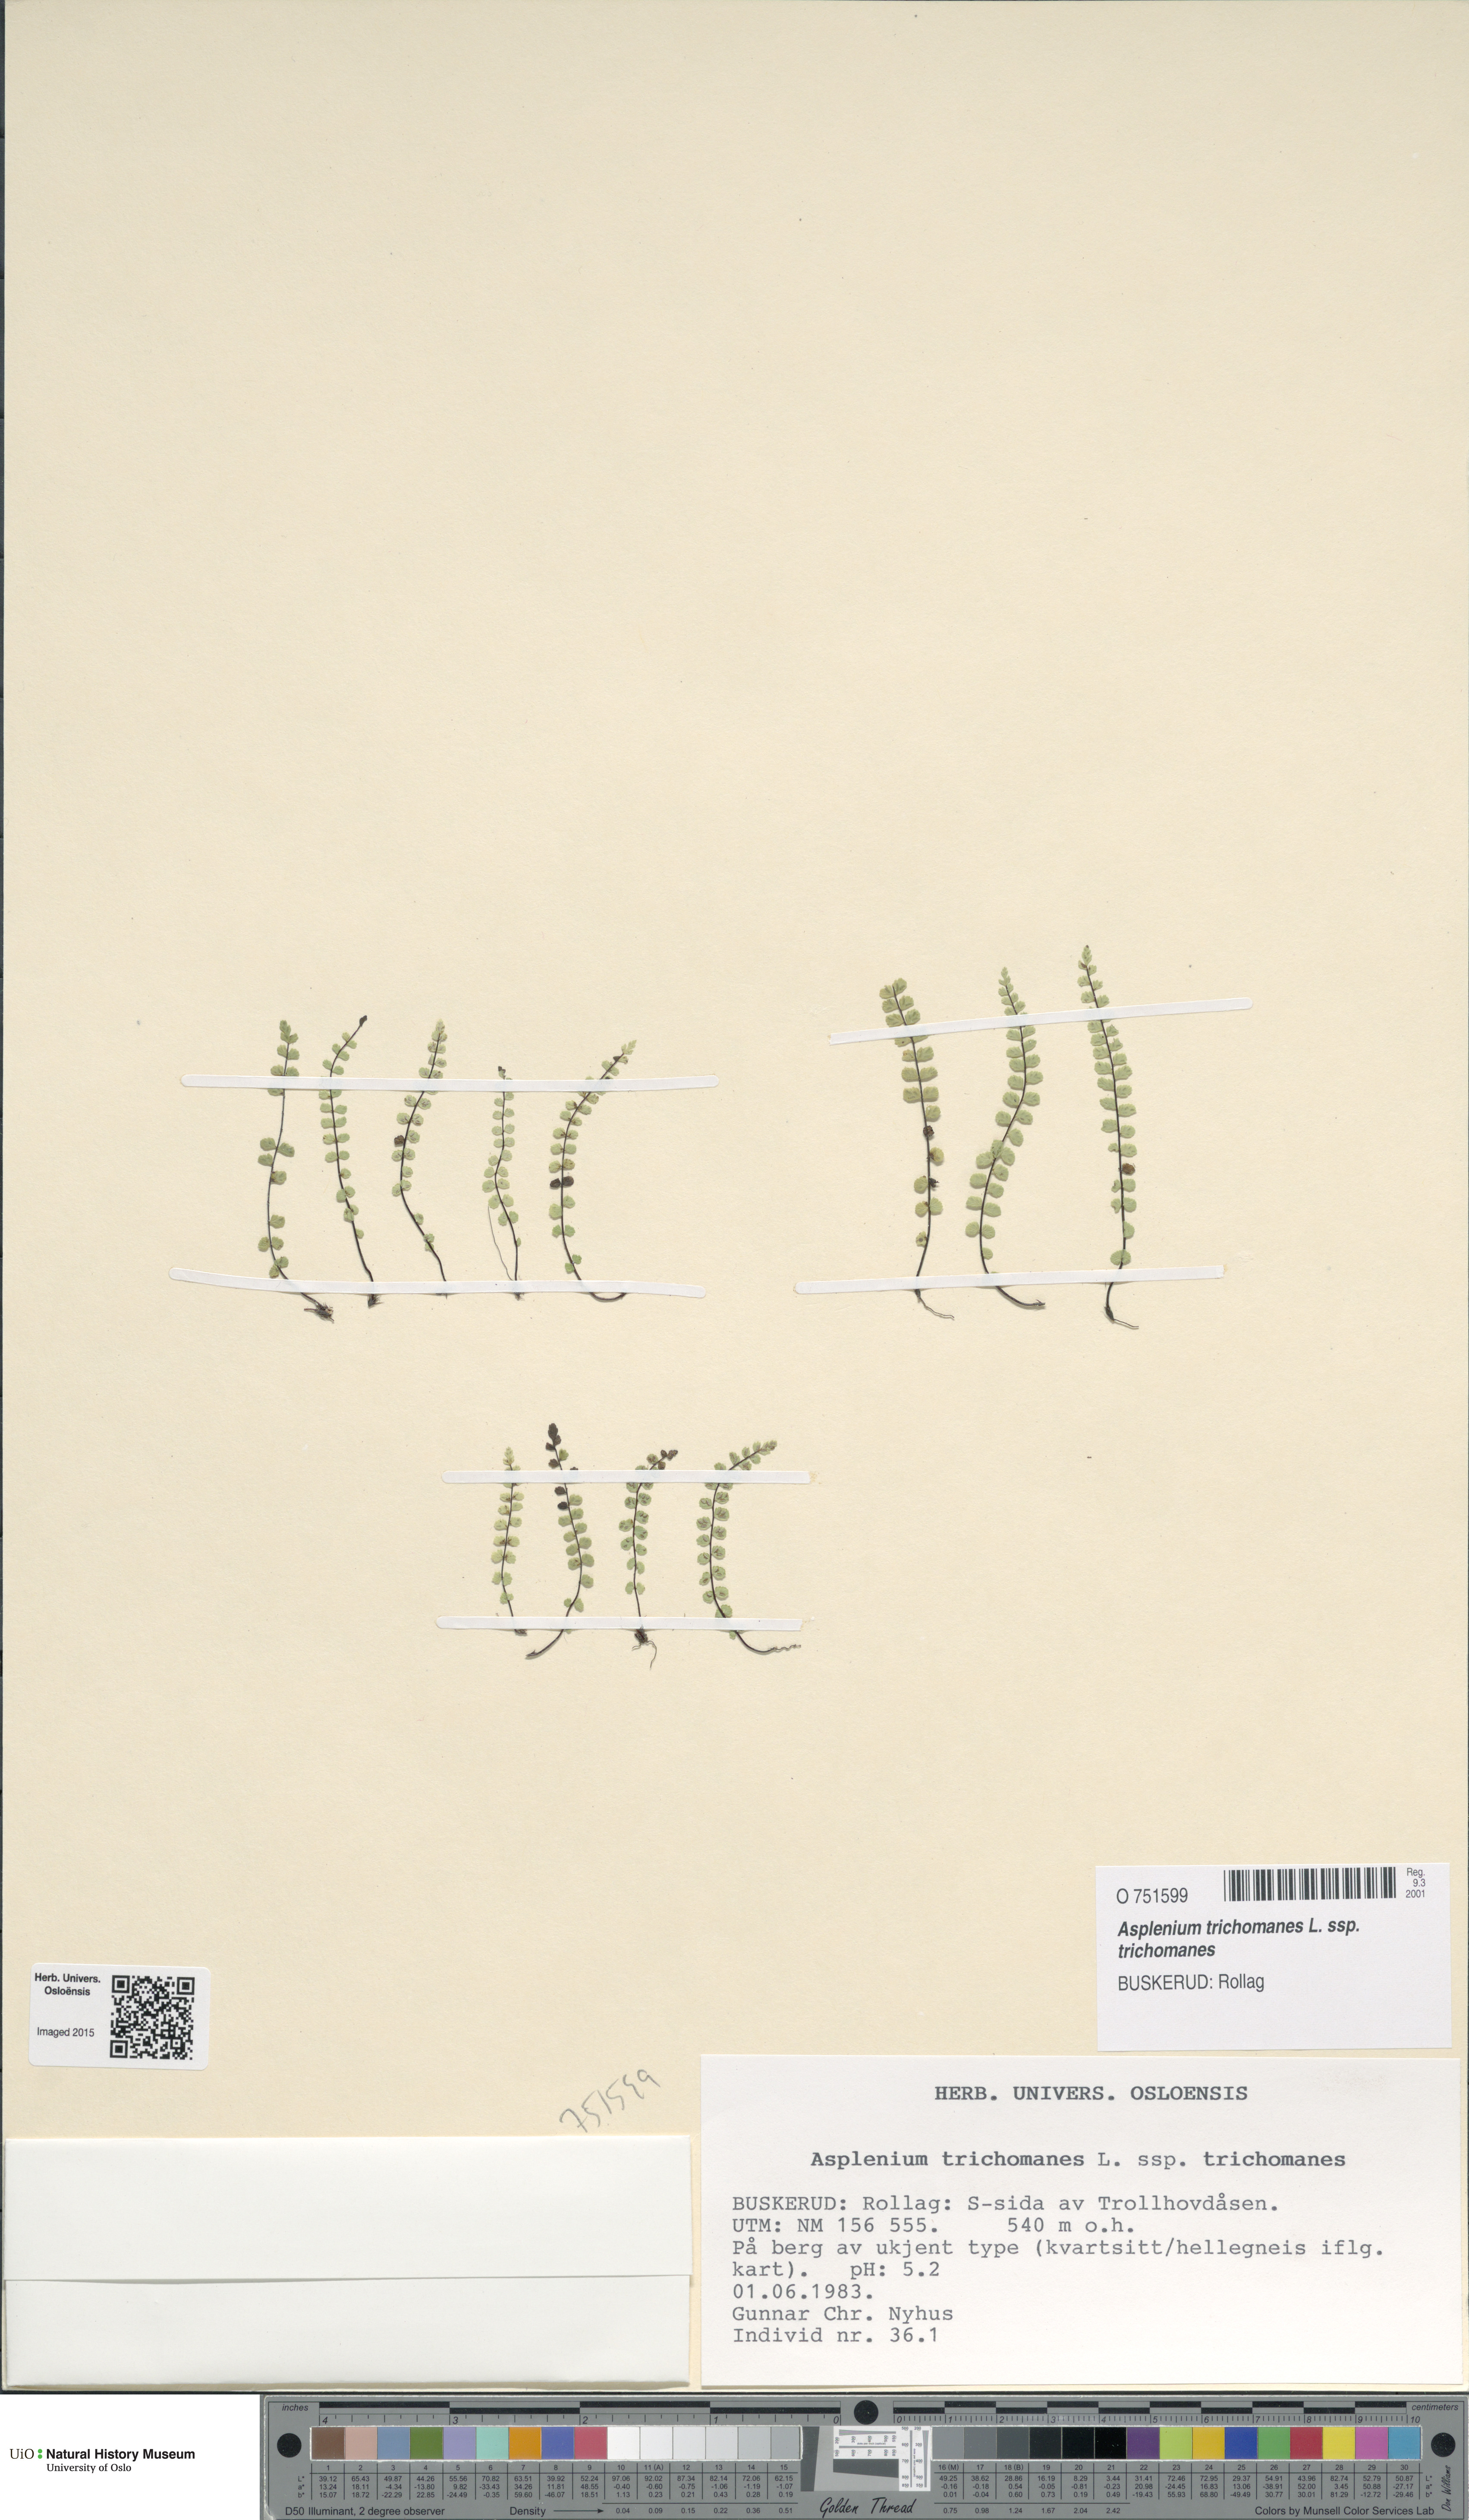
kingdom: Plantae
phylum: Tracheophyta
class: Polypodiopsida
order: Polypodiales
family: Aspleniaceae
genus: Asplenium
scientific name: Asplenium trichomanes
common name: Maidenhair spleenwort
